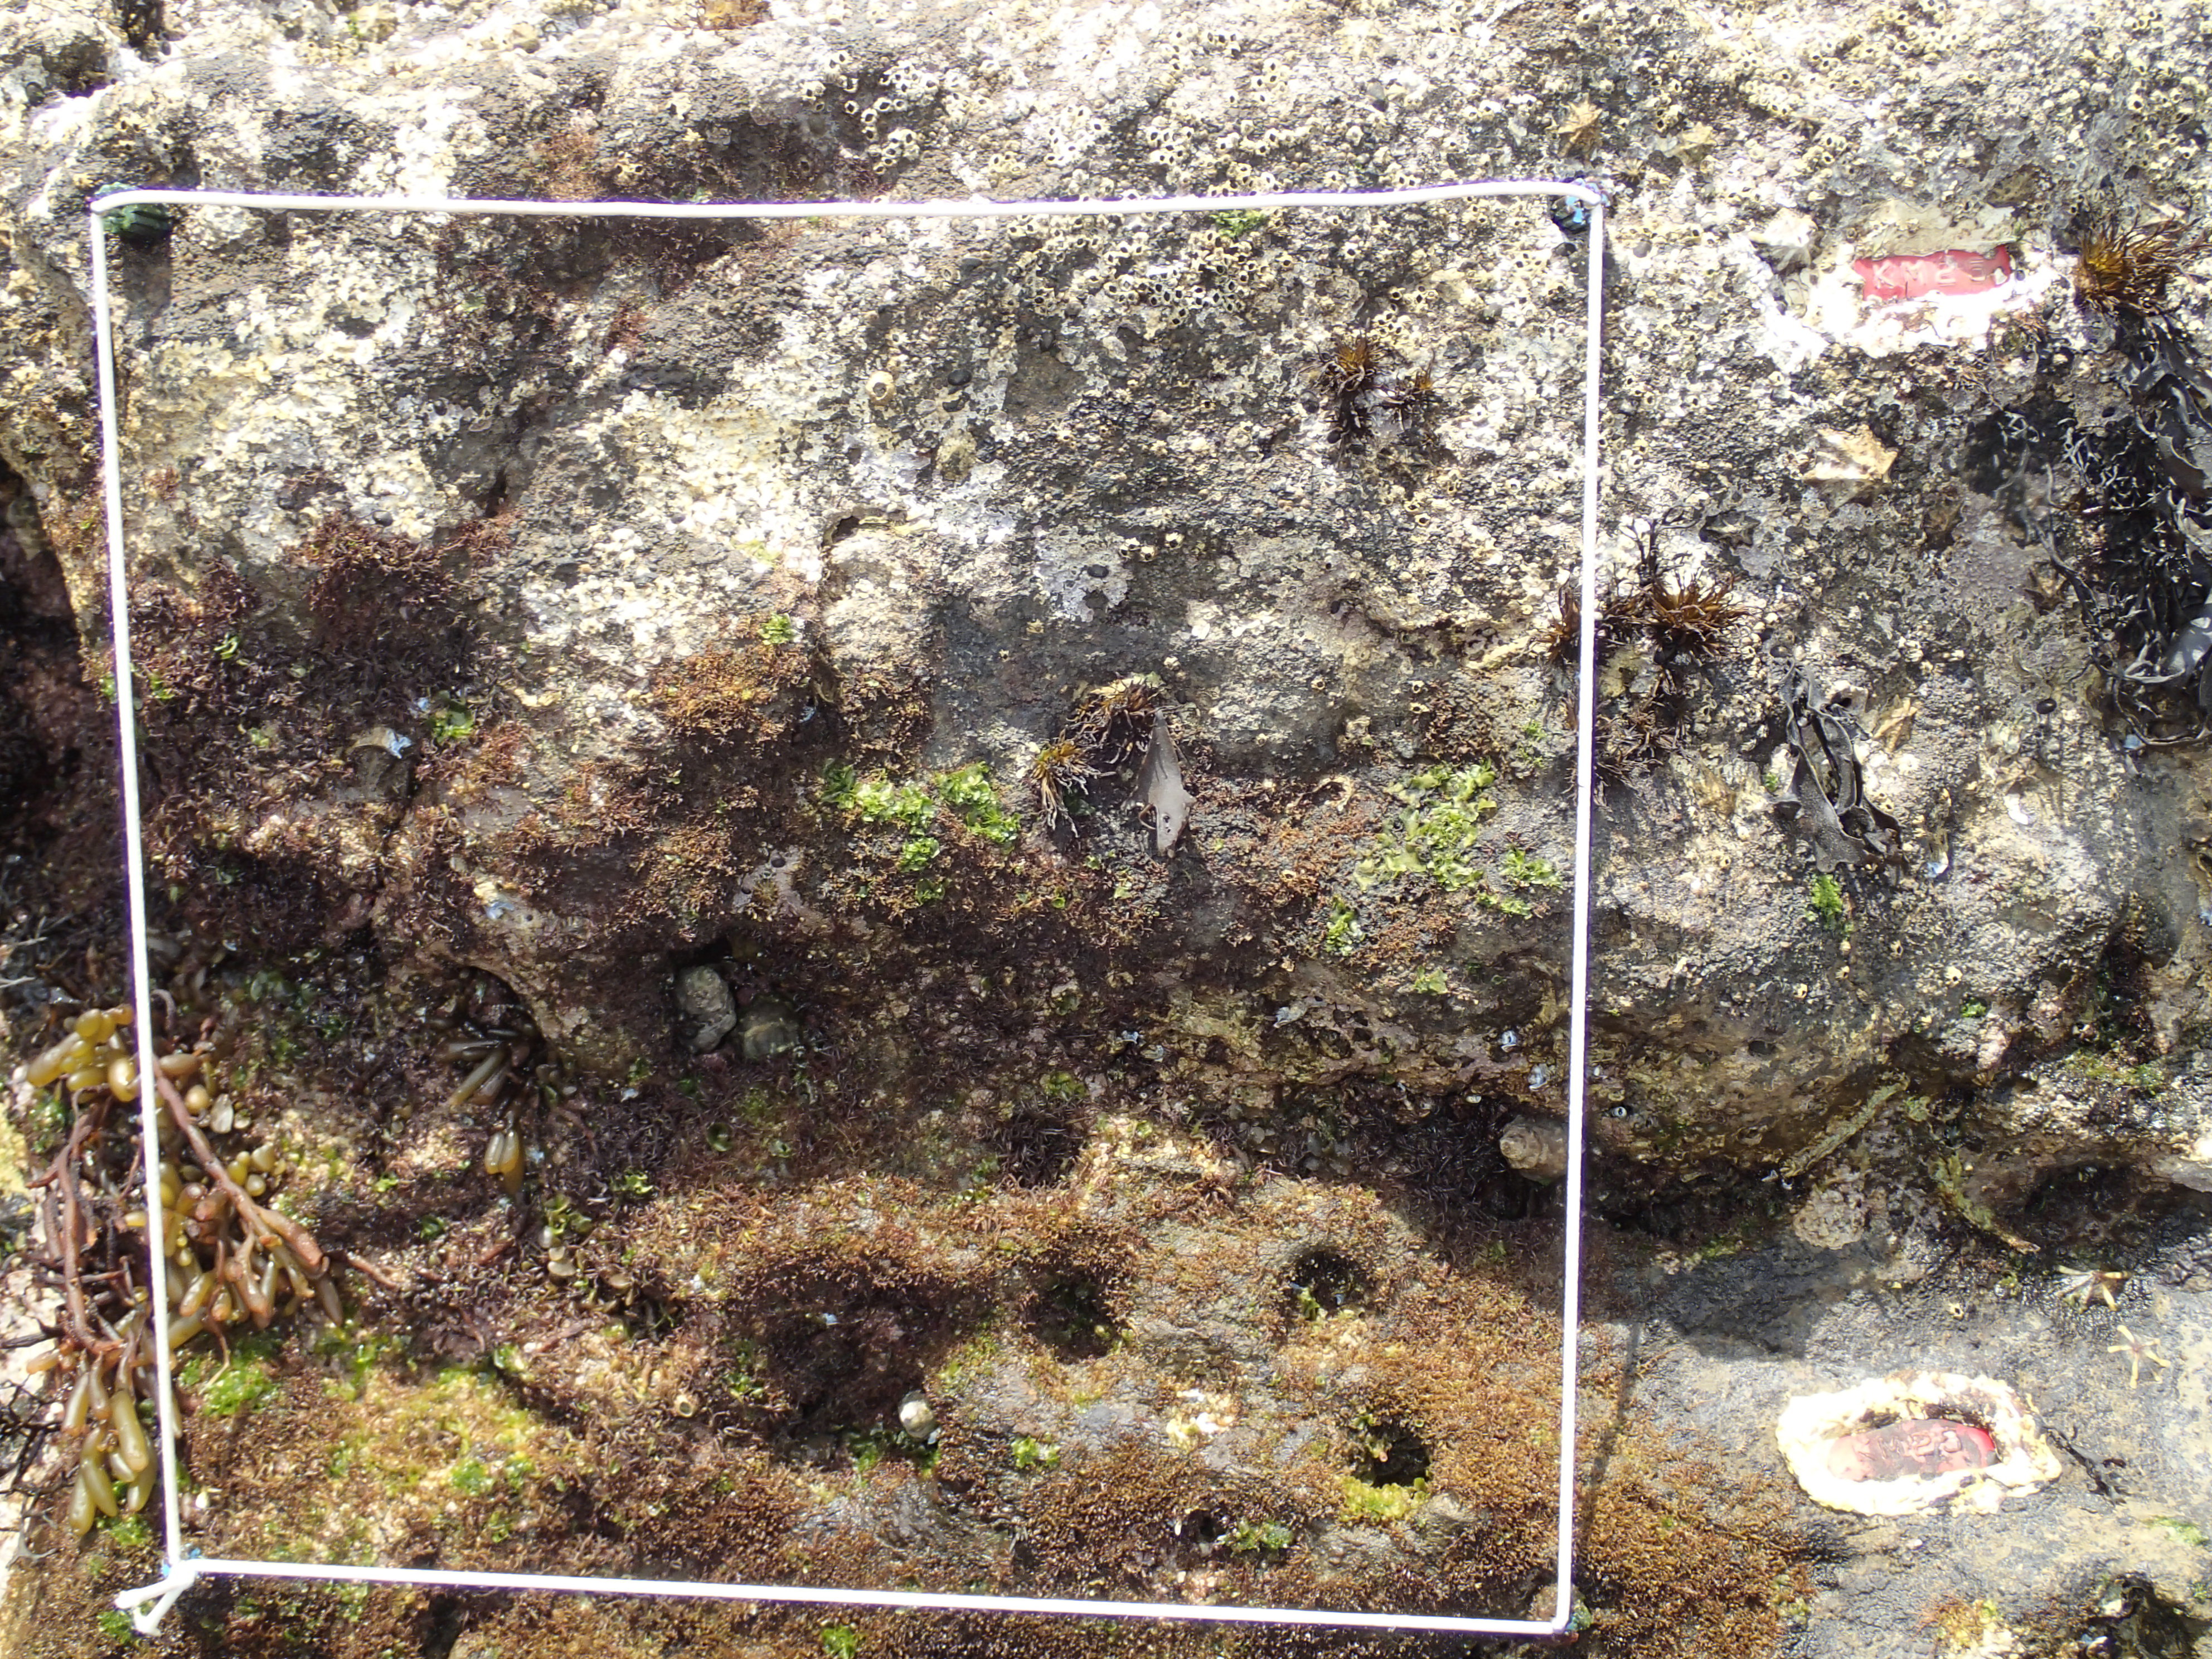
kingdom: Animalia
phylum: Arthropoda
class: Maxillopoda
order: Sessilia
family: Chthamalidae
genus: Chthamalus
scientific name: Chthamalus challengeri
